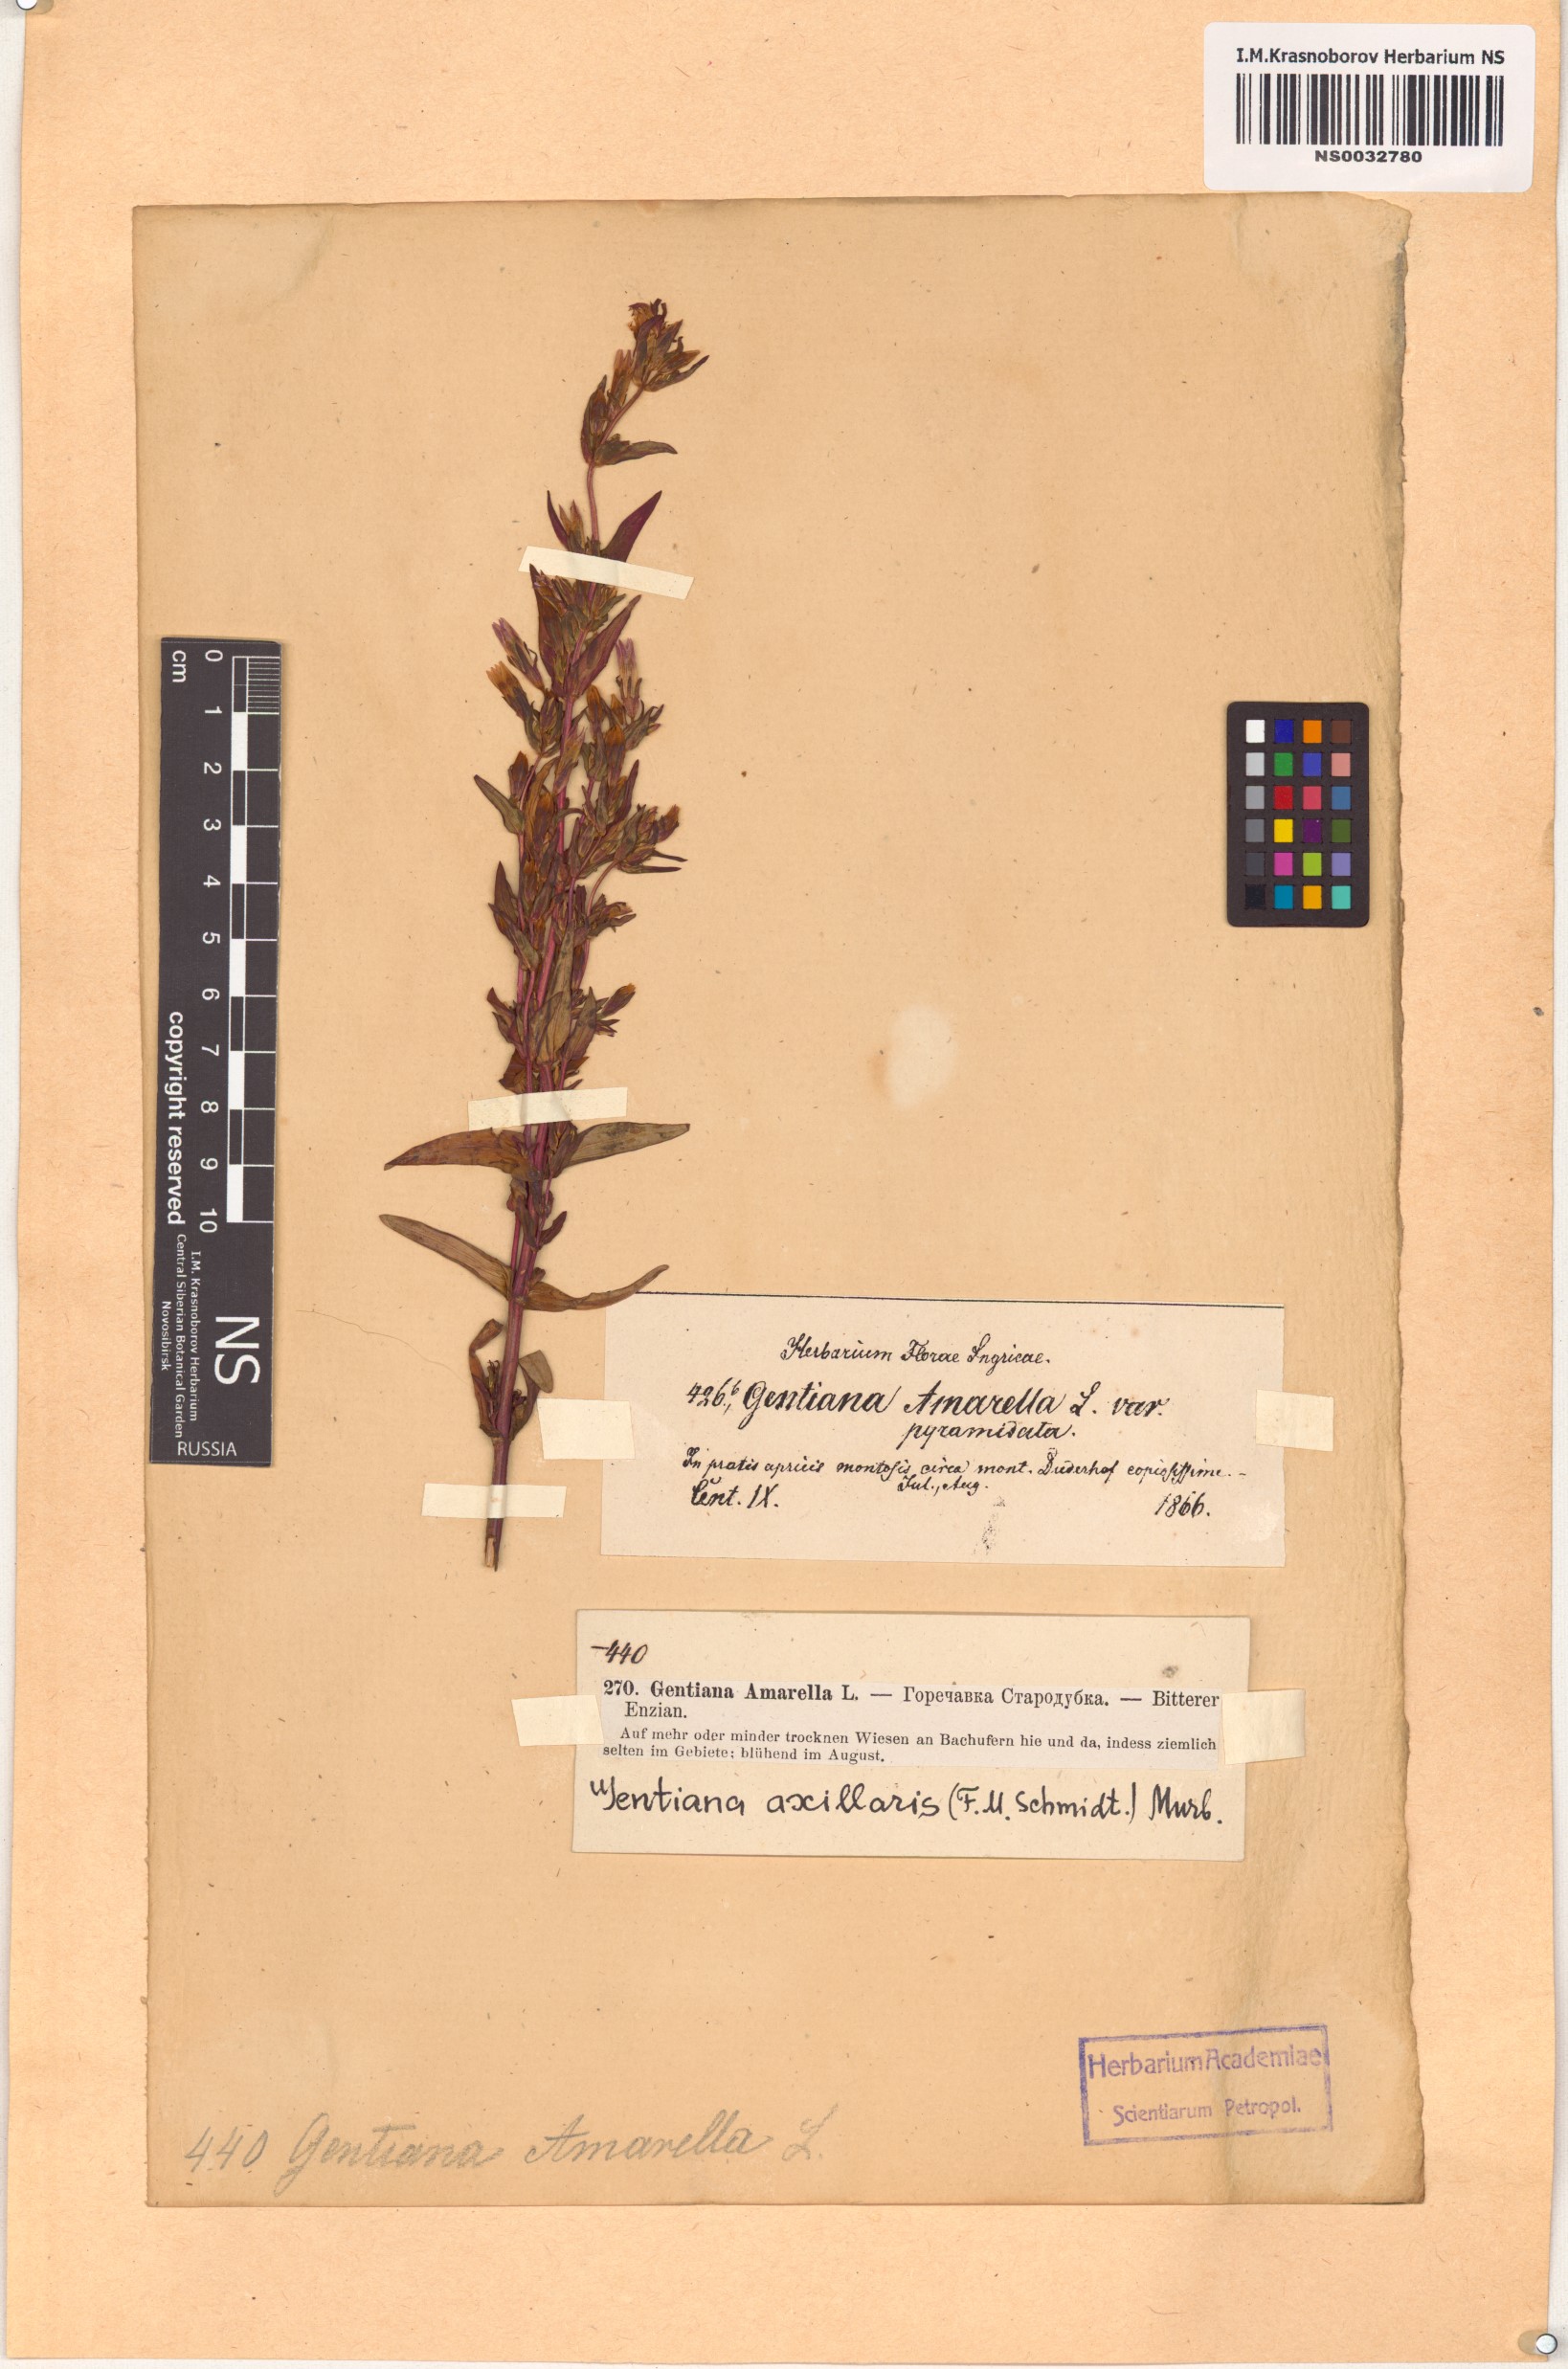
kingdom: Plantae
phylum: Tracheophyta
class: Magnoliopsida
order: Gentianales
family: Gentianaceae
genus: Gentianella
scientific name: Gentianella amarella
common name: Autumn gentian
